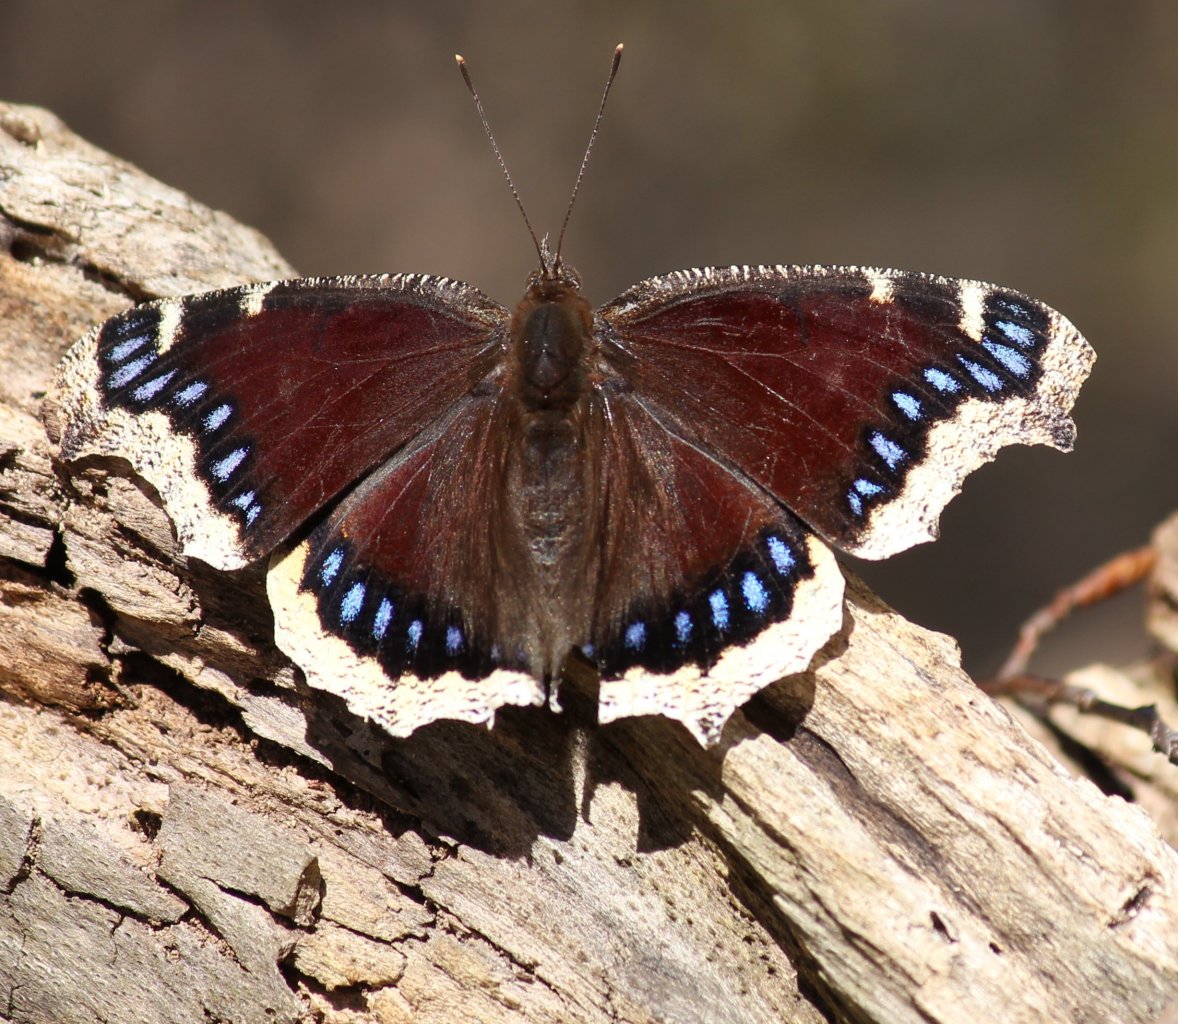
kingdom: Animalia
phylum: Arthropoda
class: Insecta
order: Lepidoptera
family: Nymphalidae
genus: Nymphalis
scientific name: Nymphalis antiopa
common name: Mourning Cloak
